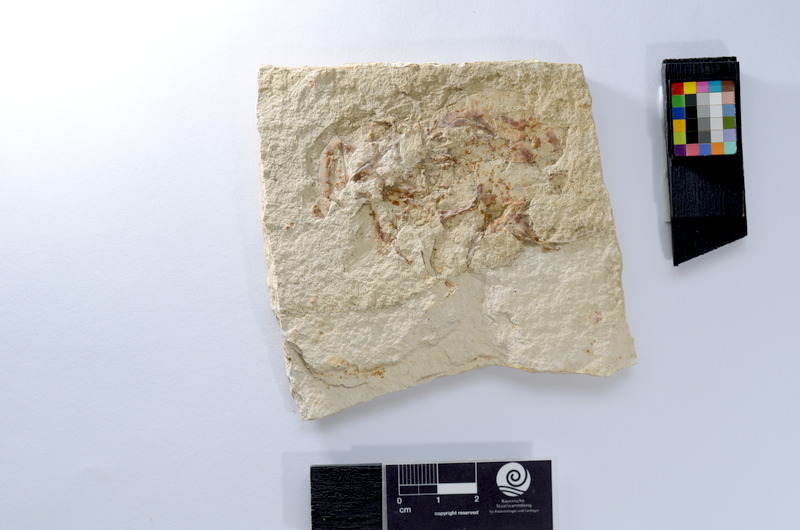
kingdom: Animalia
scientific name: Animalia
